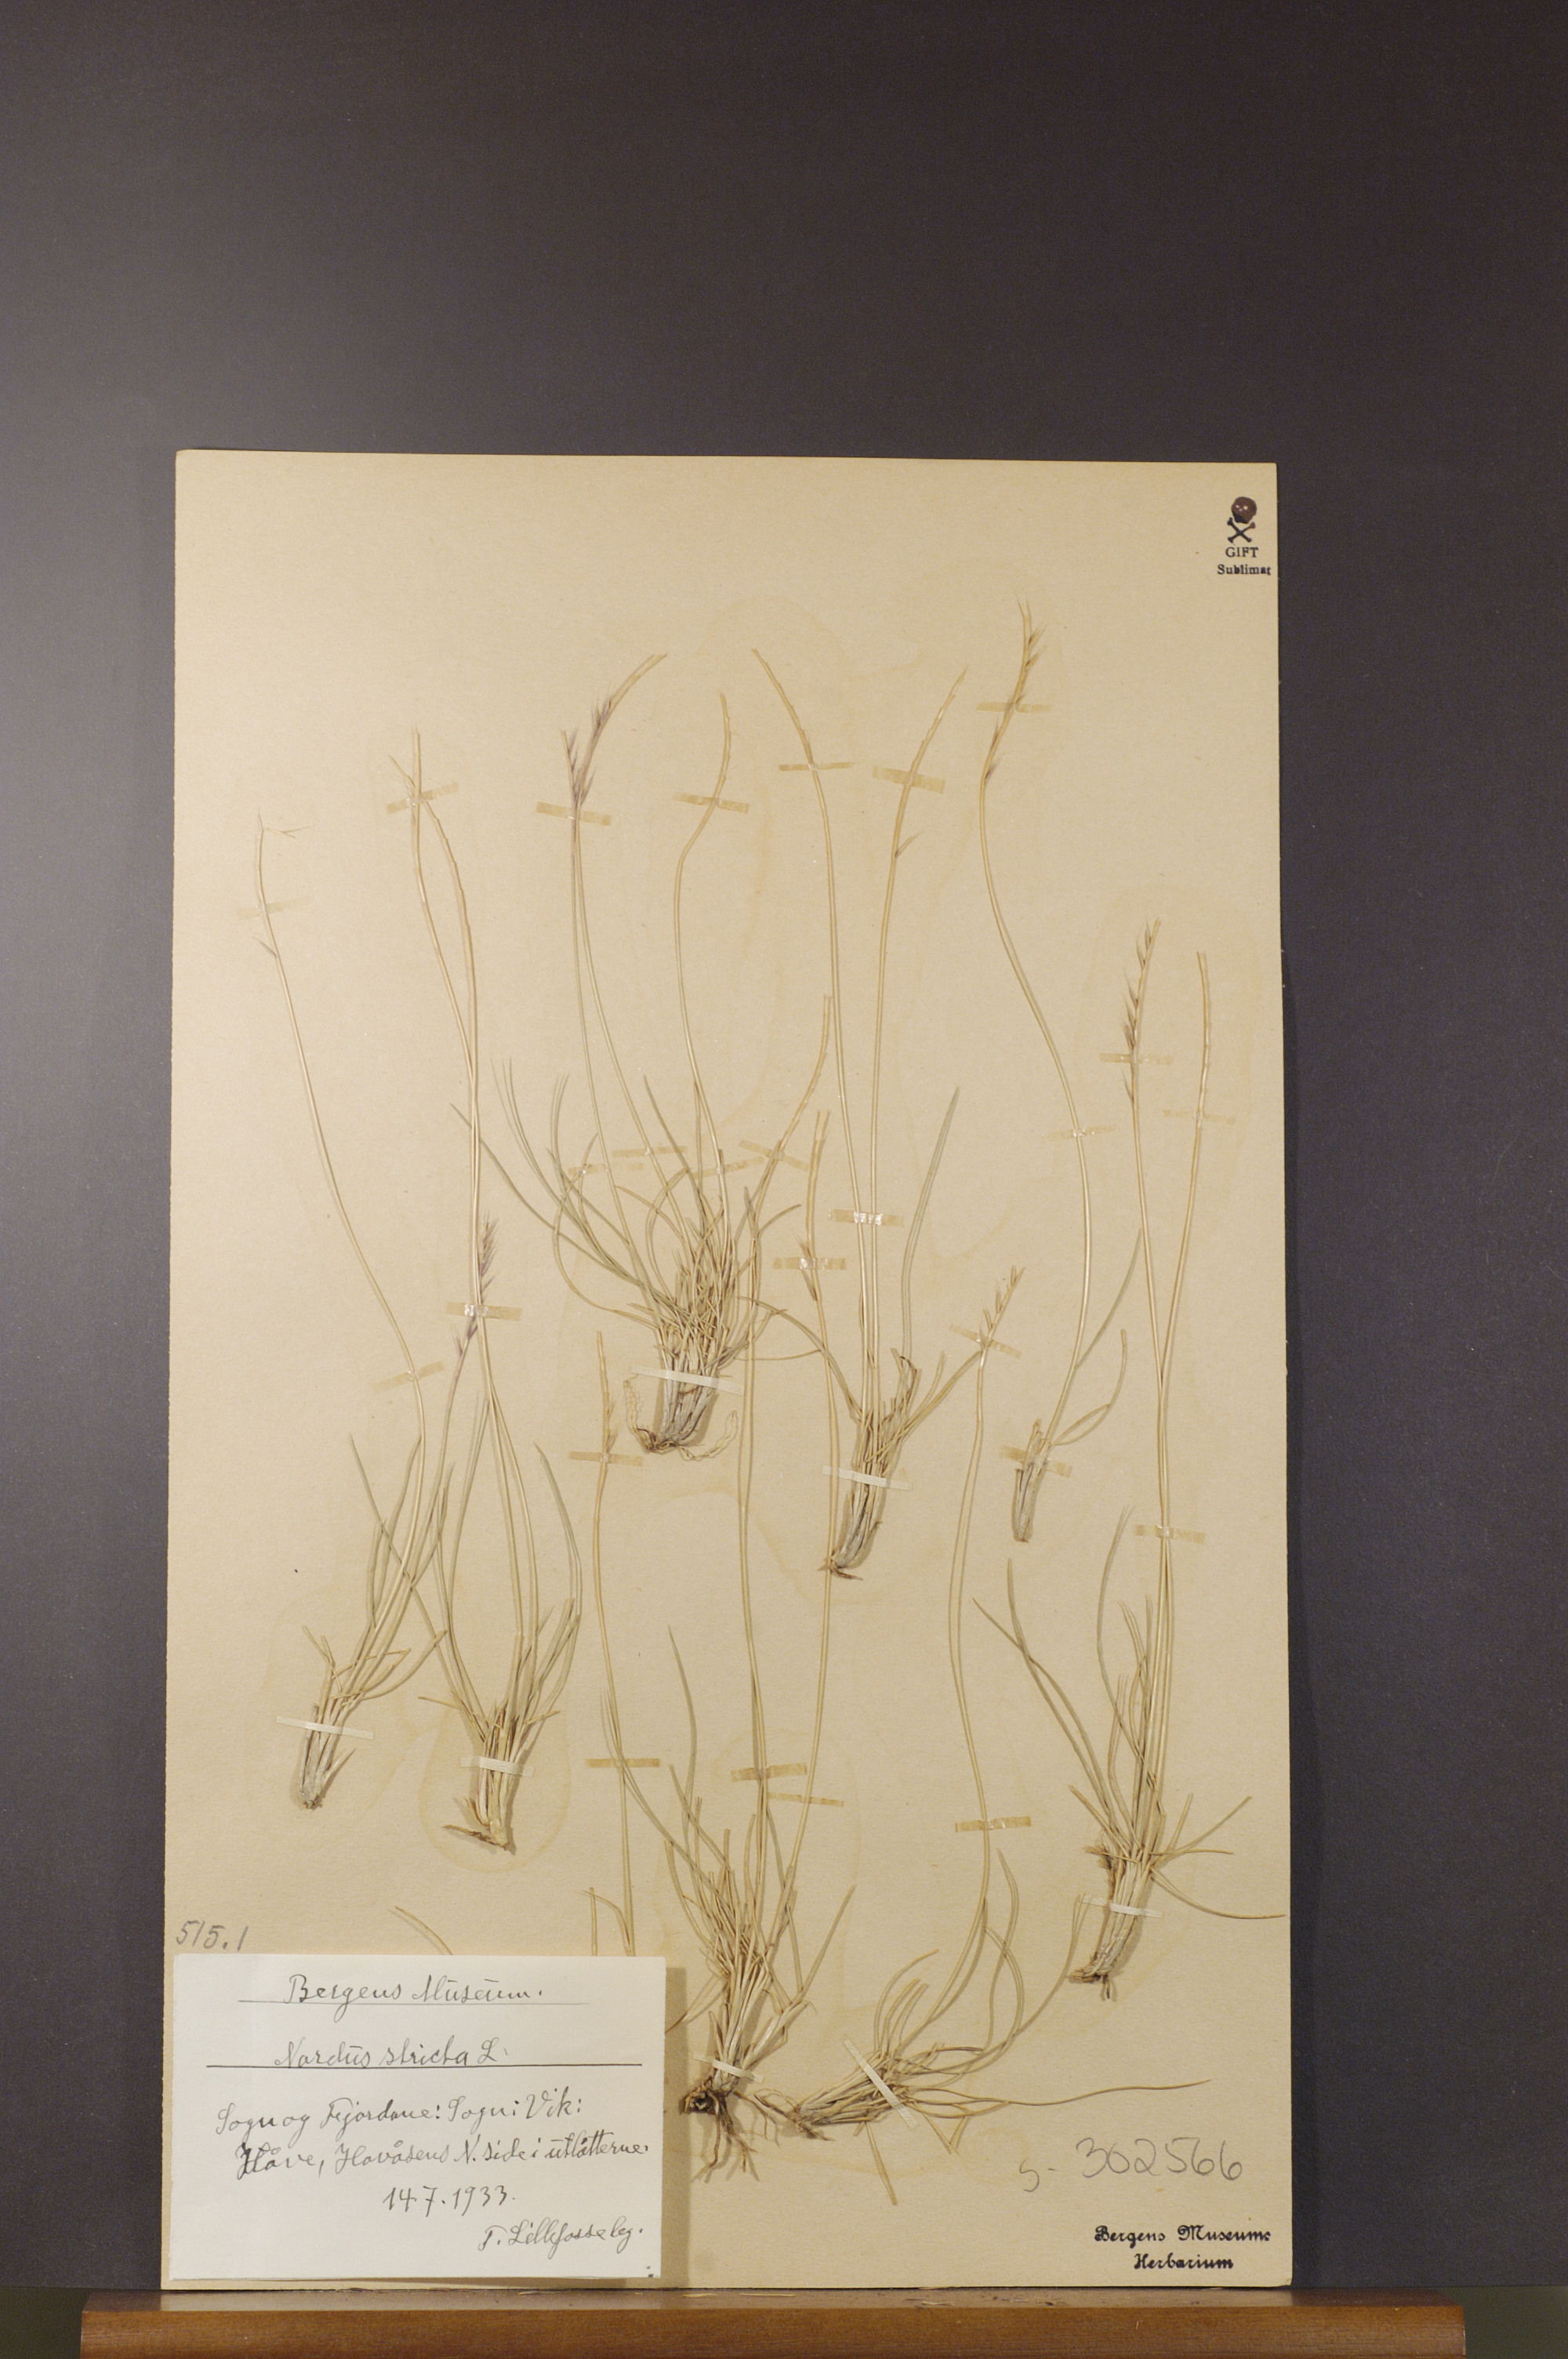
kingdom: Plantae
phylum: Tracheophyta
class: Liliopsida
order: Poales
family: Poaceae
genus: Nardus
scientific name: Nardus stricta
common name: Mat-grass
